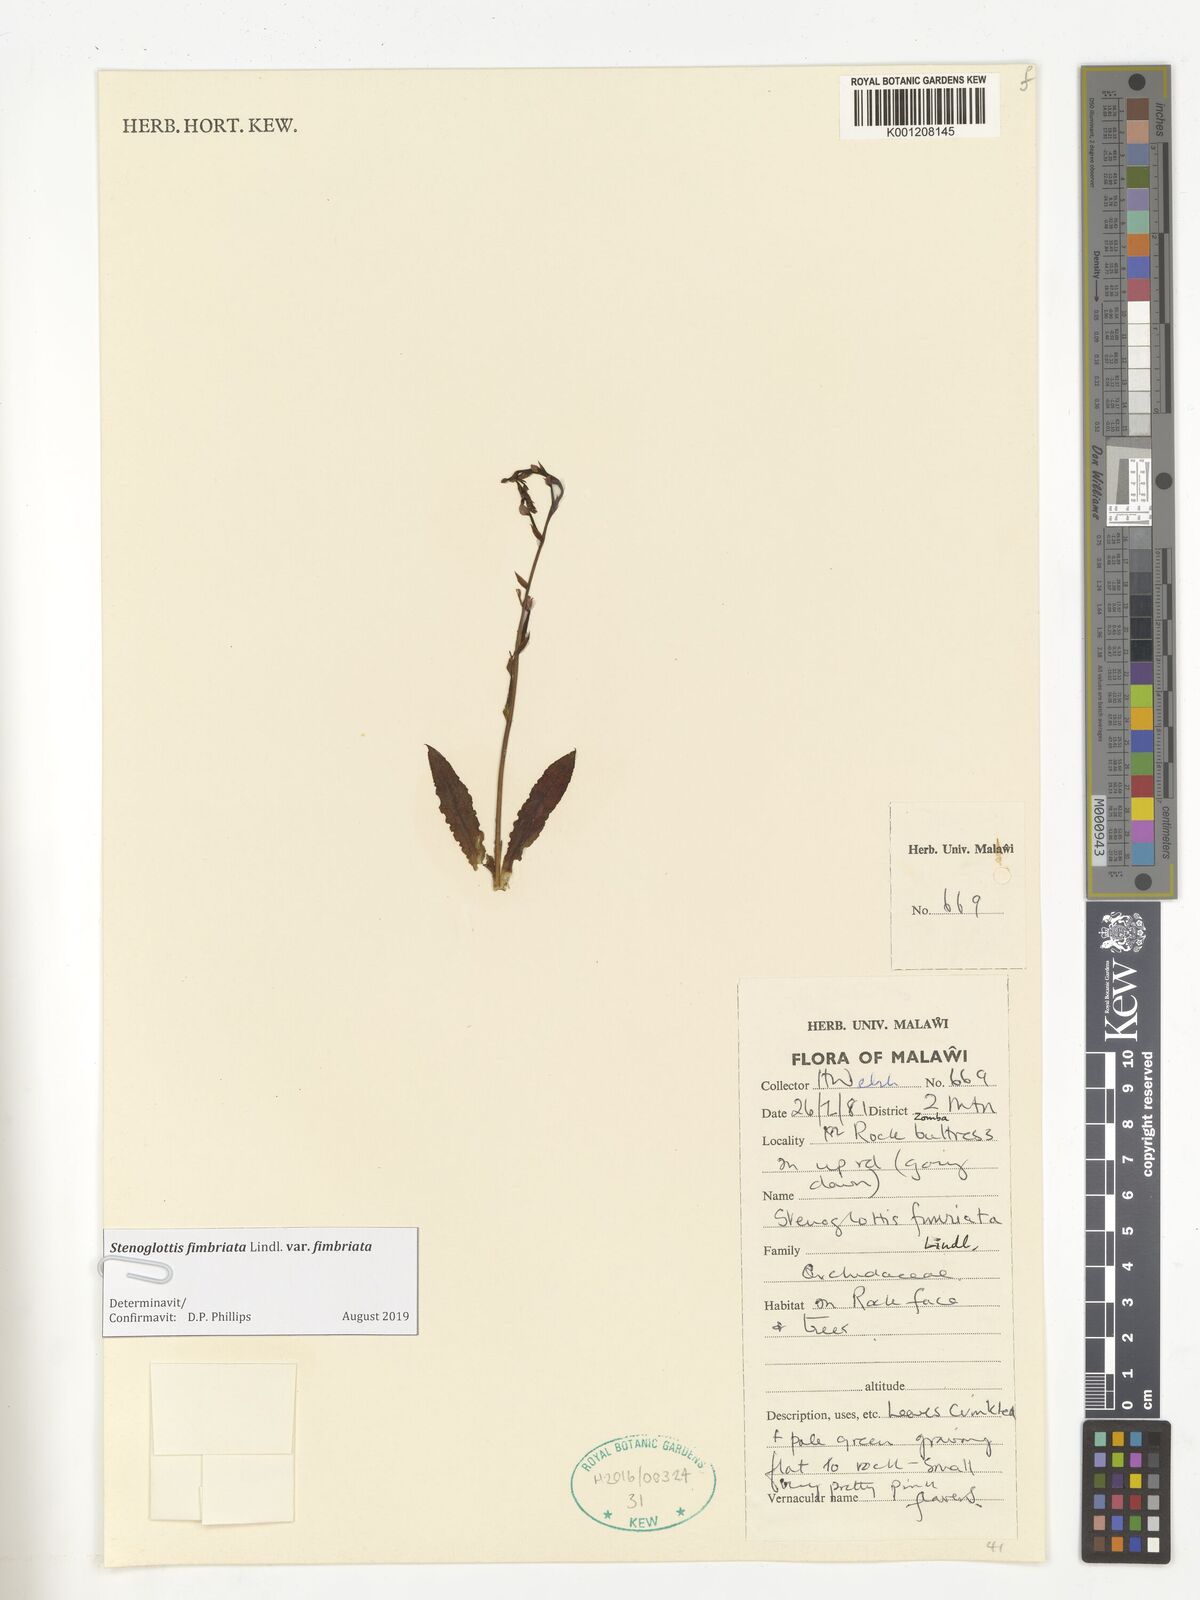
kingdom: Plantae
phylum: Tracheophyta
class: Liliopsida
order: Asparagales
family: Orchidaceae
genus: Stenoglottis
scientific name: Stenoglottis fimbriata
